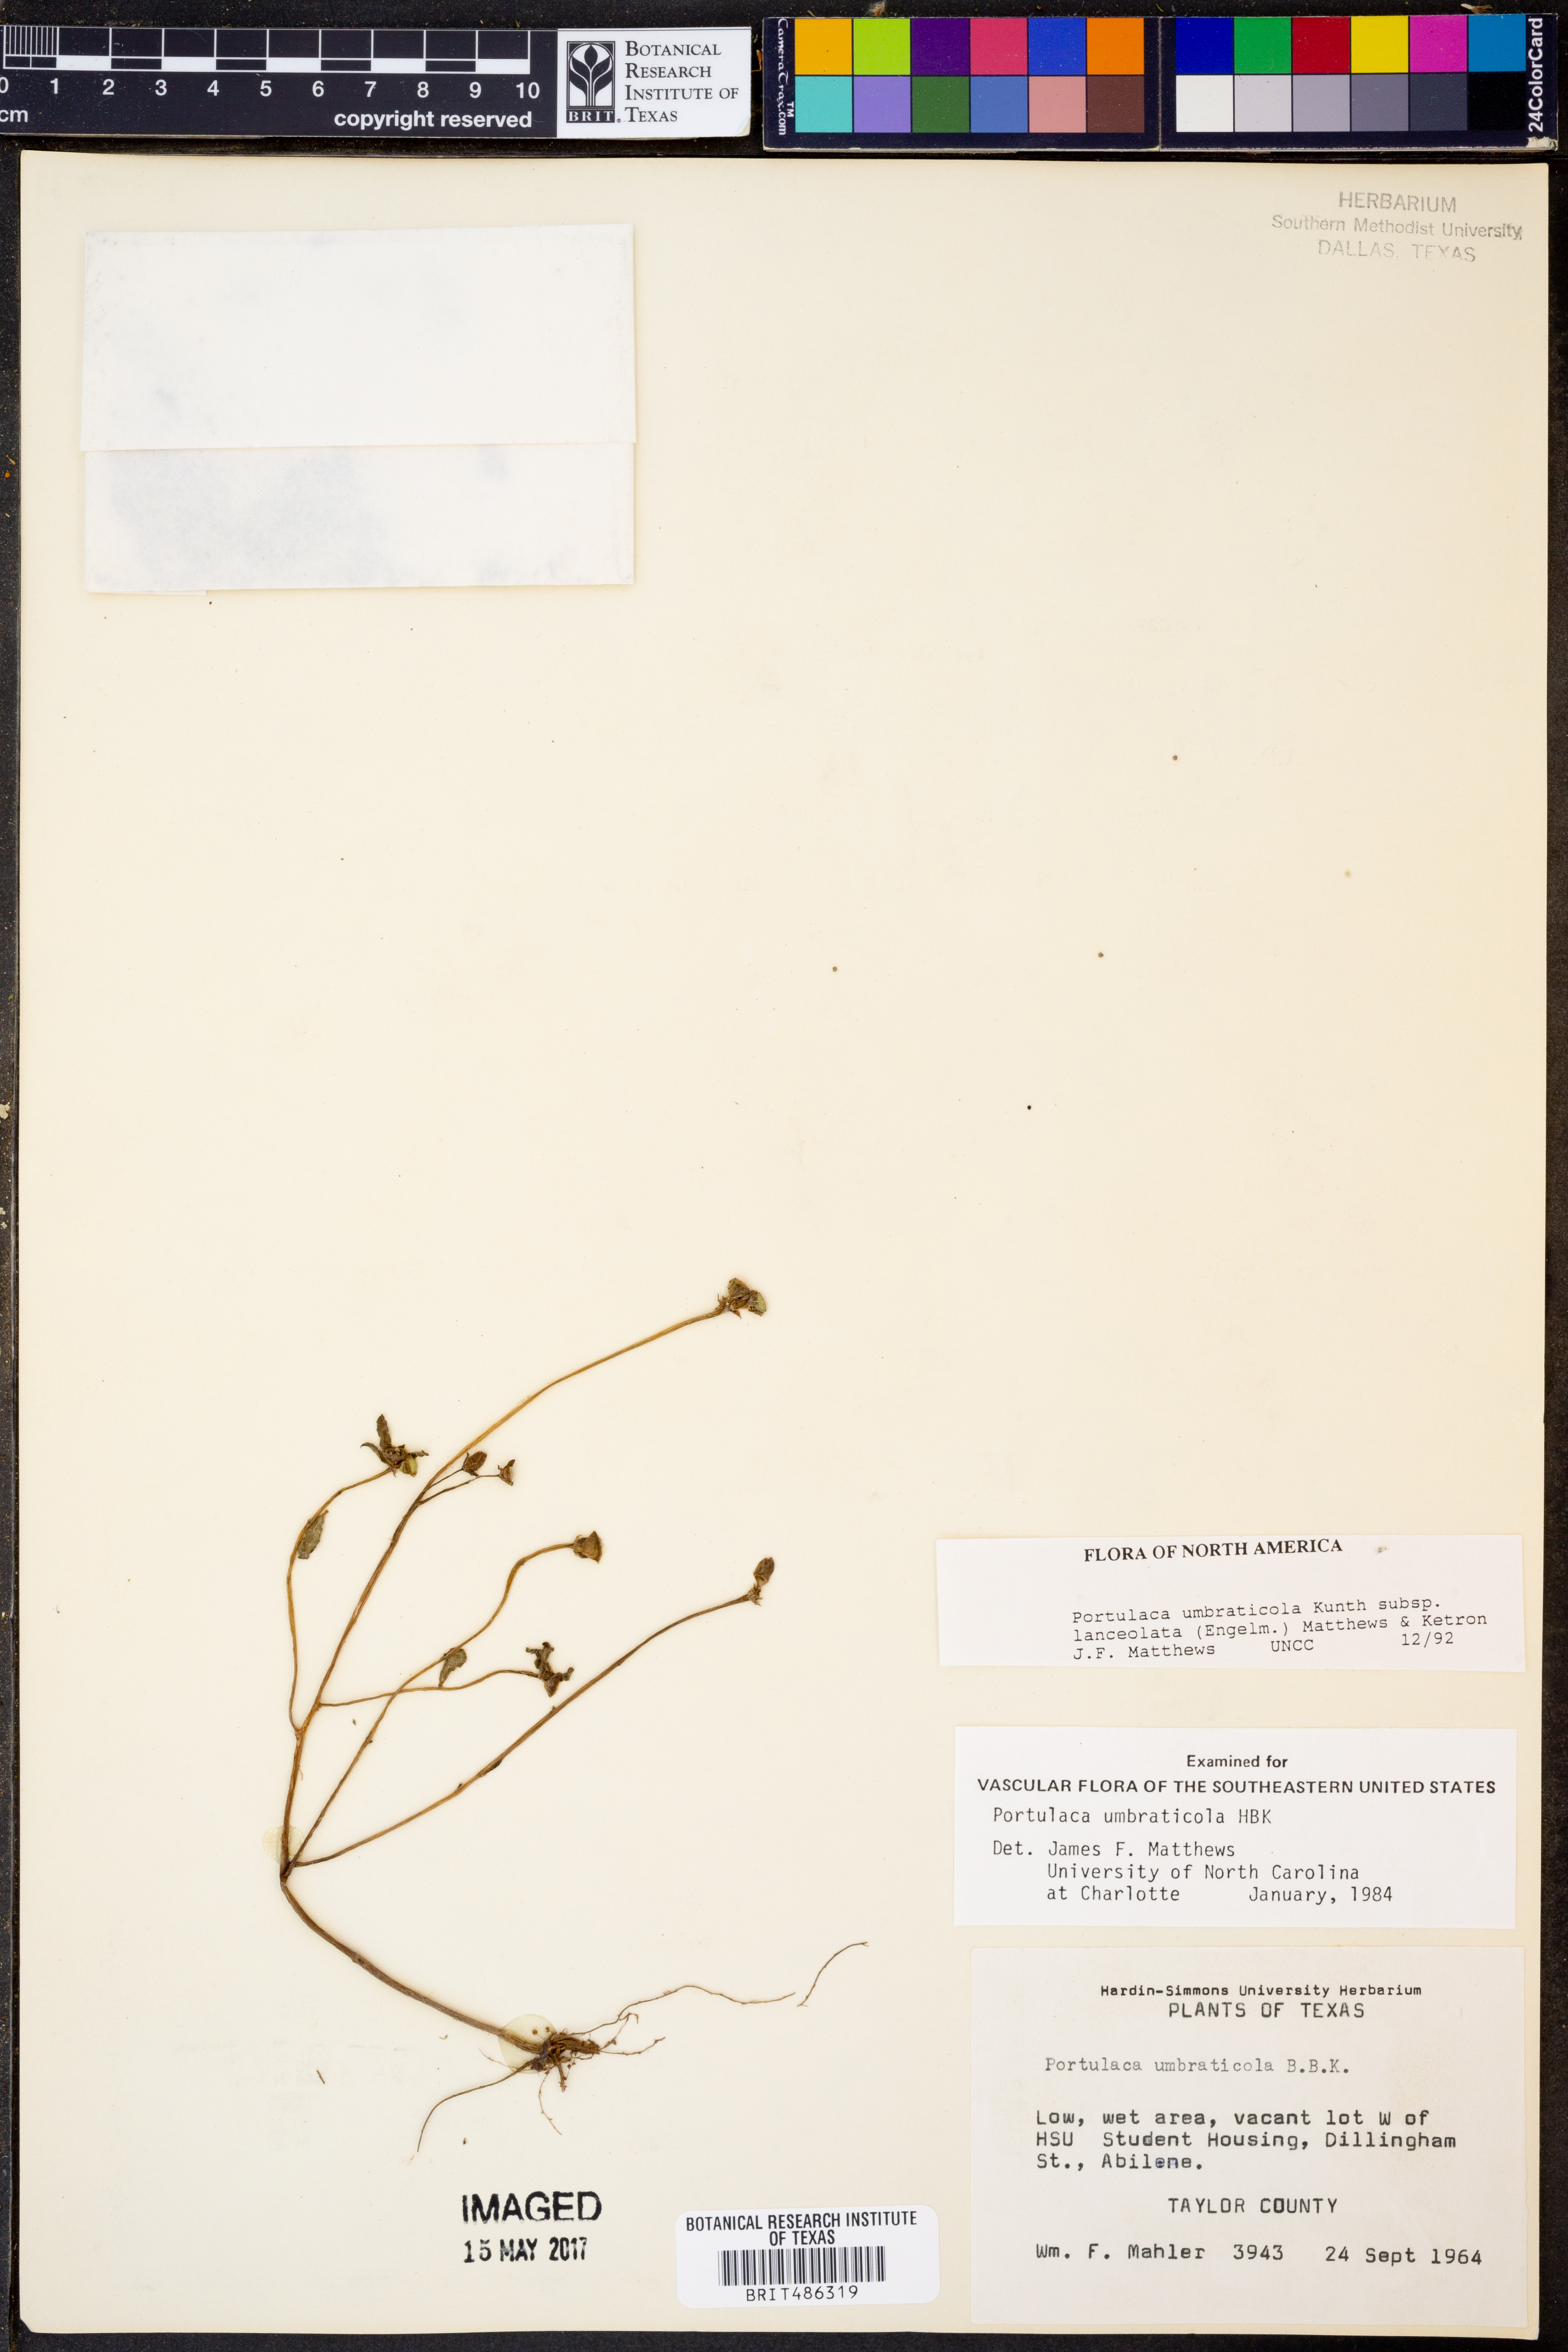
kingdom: Plantae
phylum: Tracheophyta
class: Magnoliopsida
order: Caryophyllales
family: Portulacaceae
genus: Portulaca
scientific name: Portulaca umbraticola
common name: Wingpod purslane
